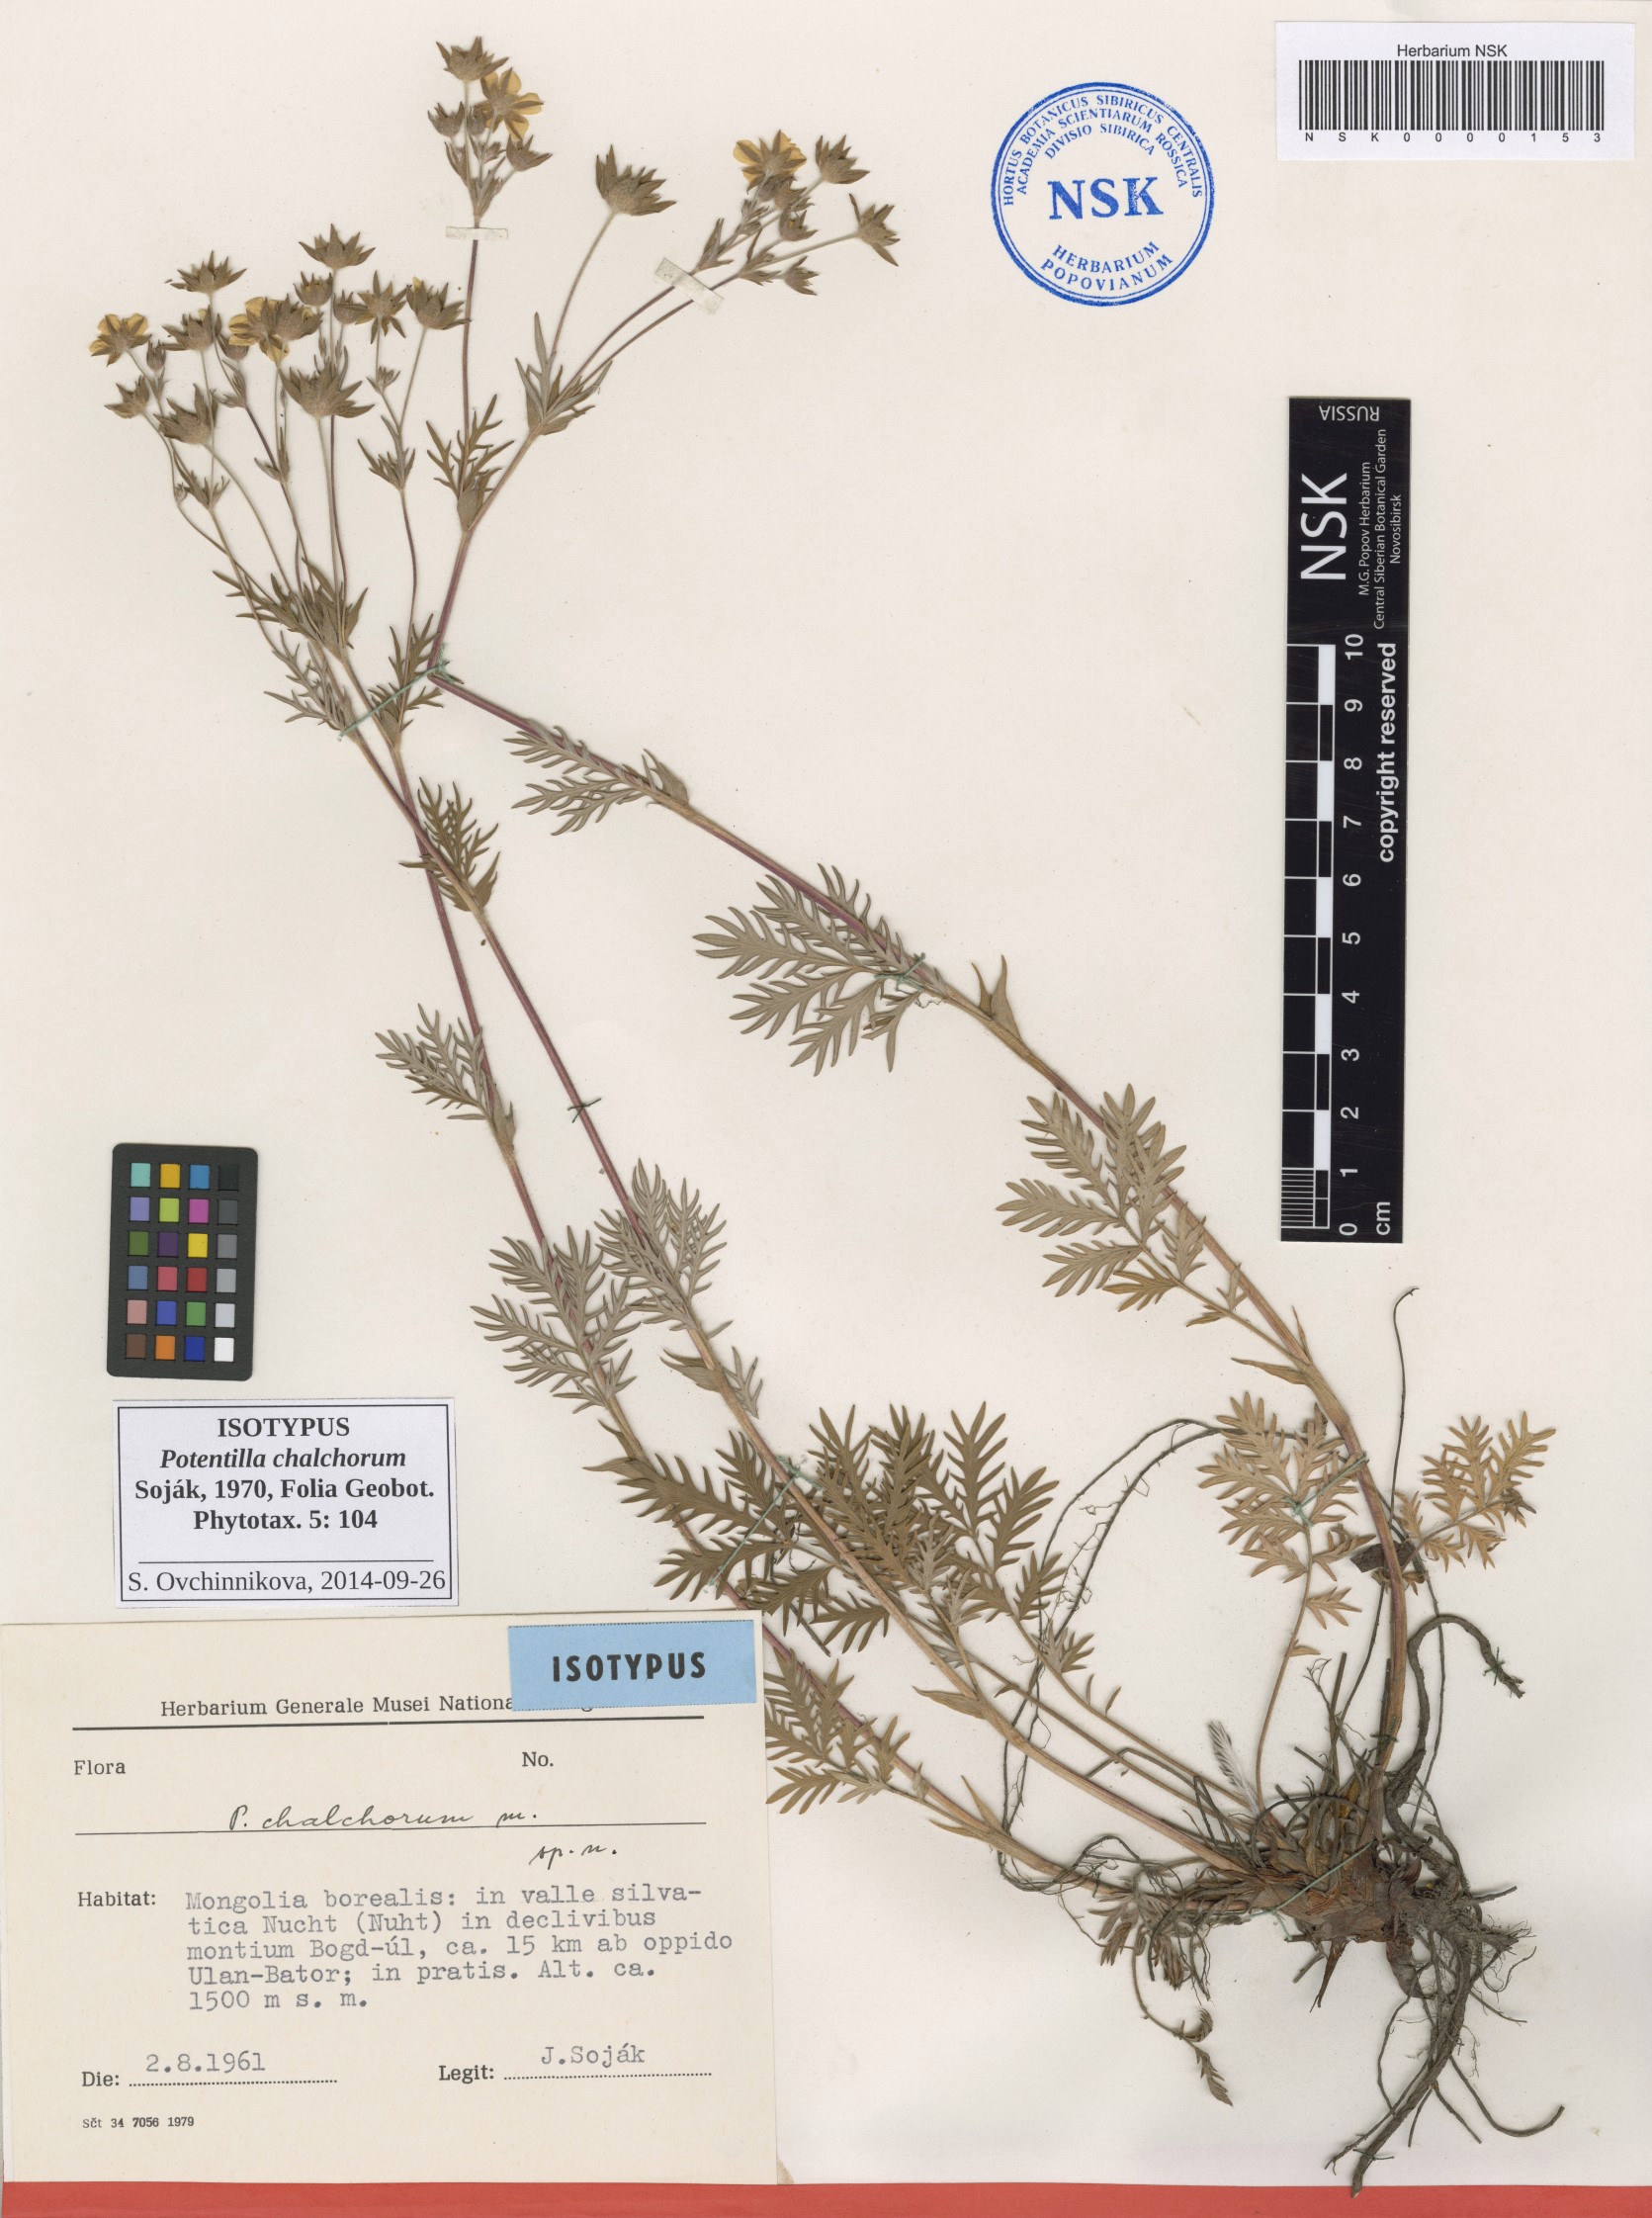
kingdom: Plantae
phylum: Tracheophyta
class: Magnoliopsida
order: Rosales
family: Rosaceae
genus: Potentilla
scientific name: Potentilla chalchorum
